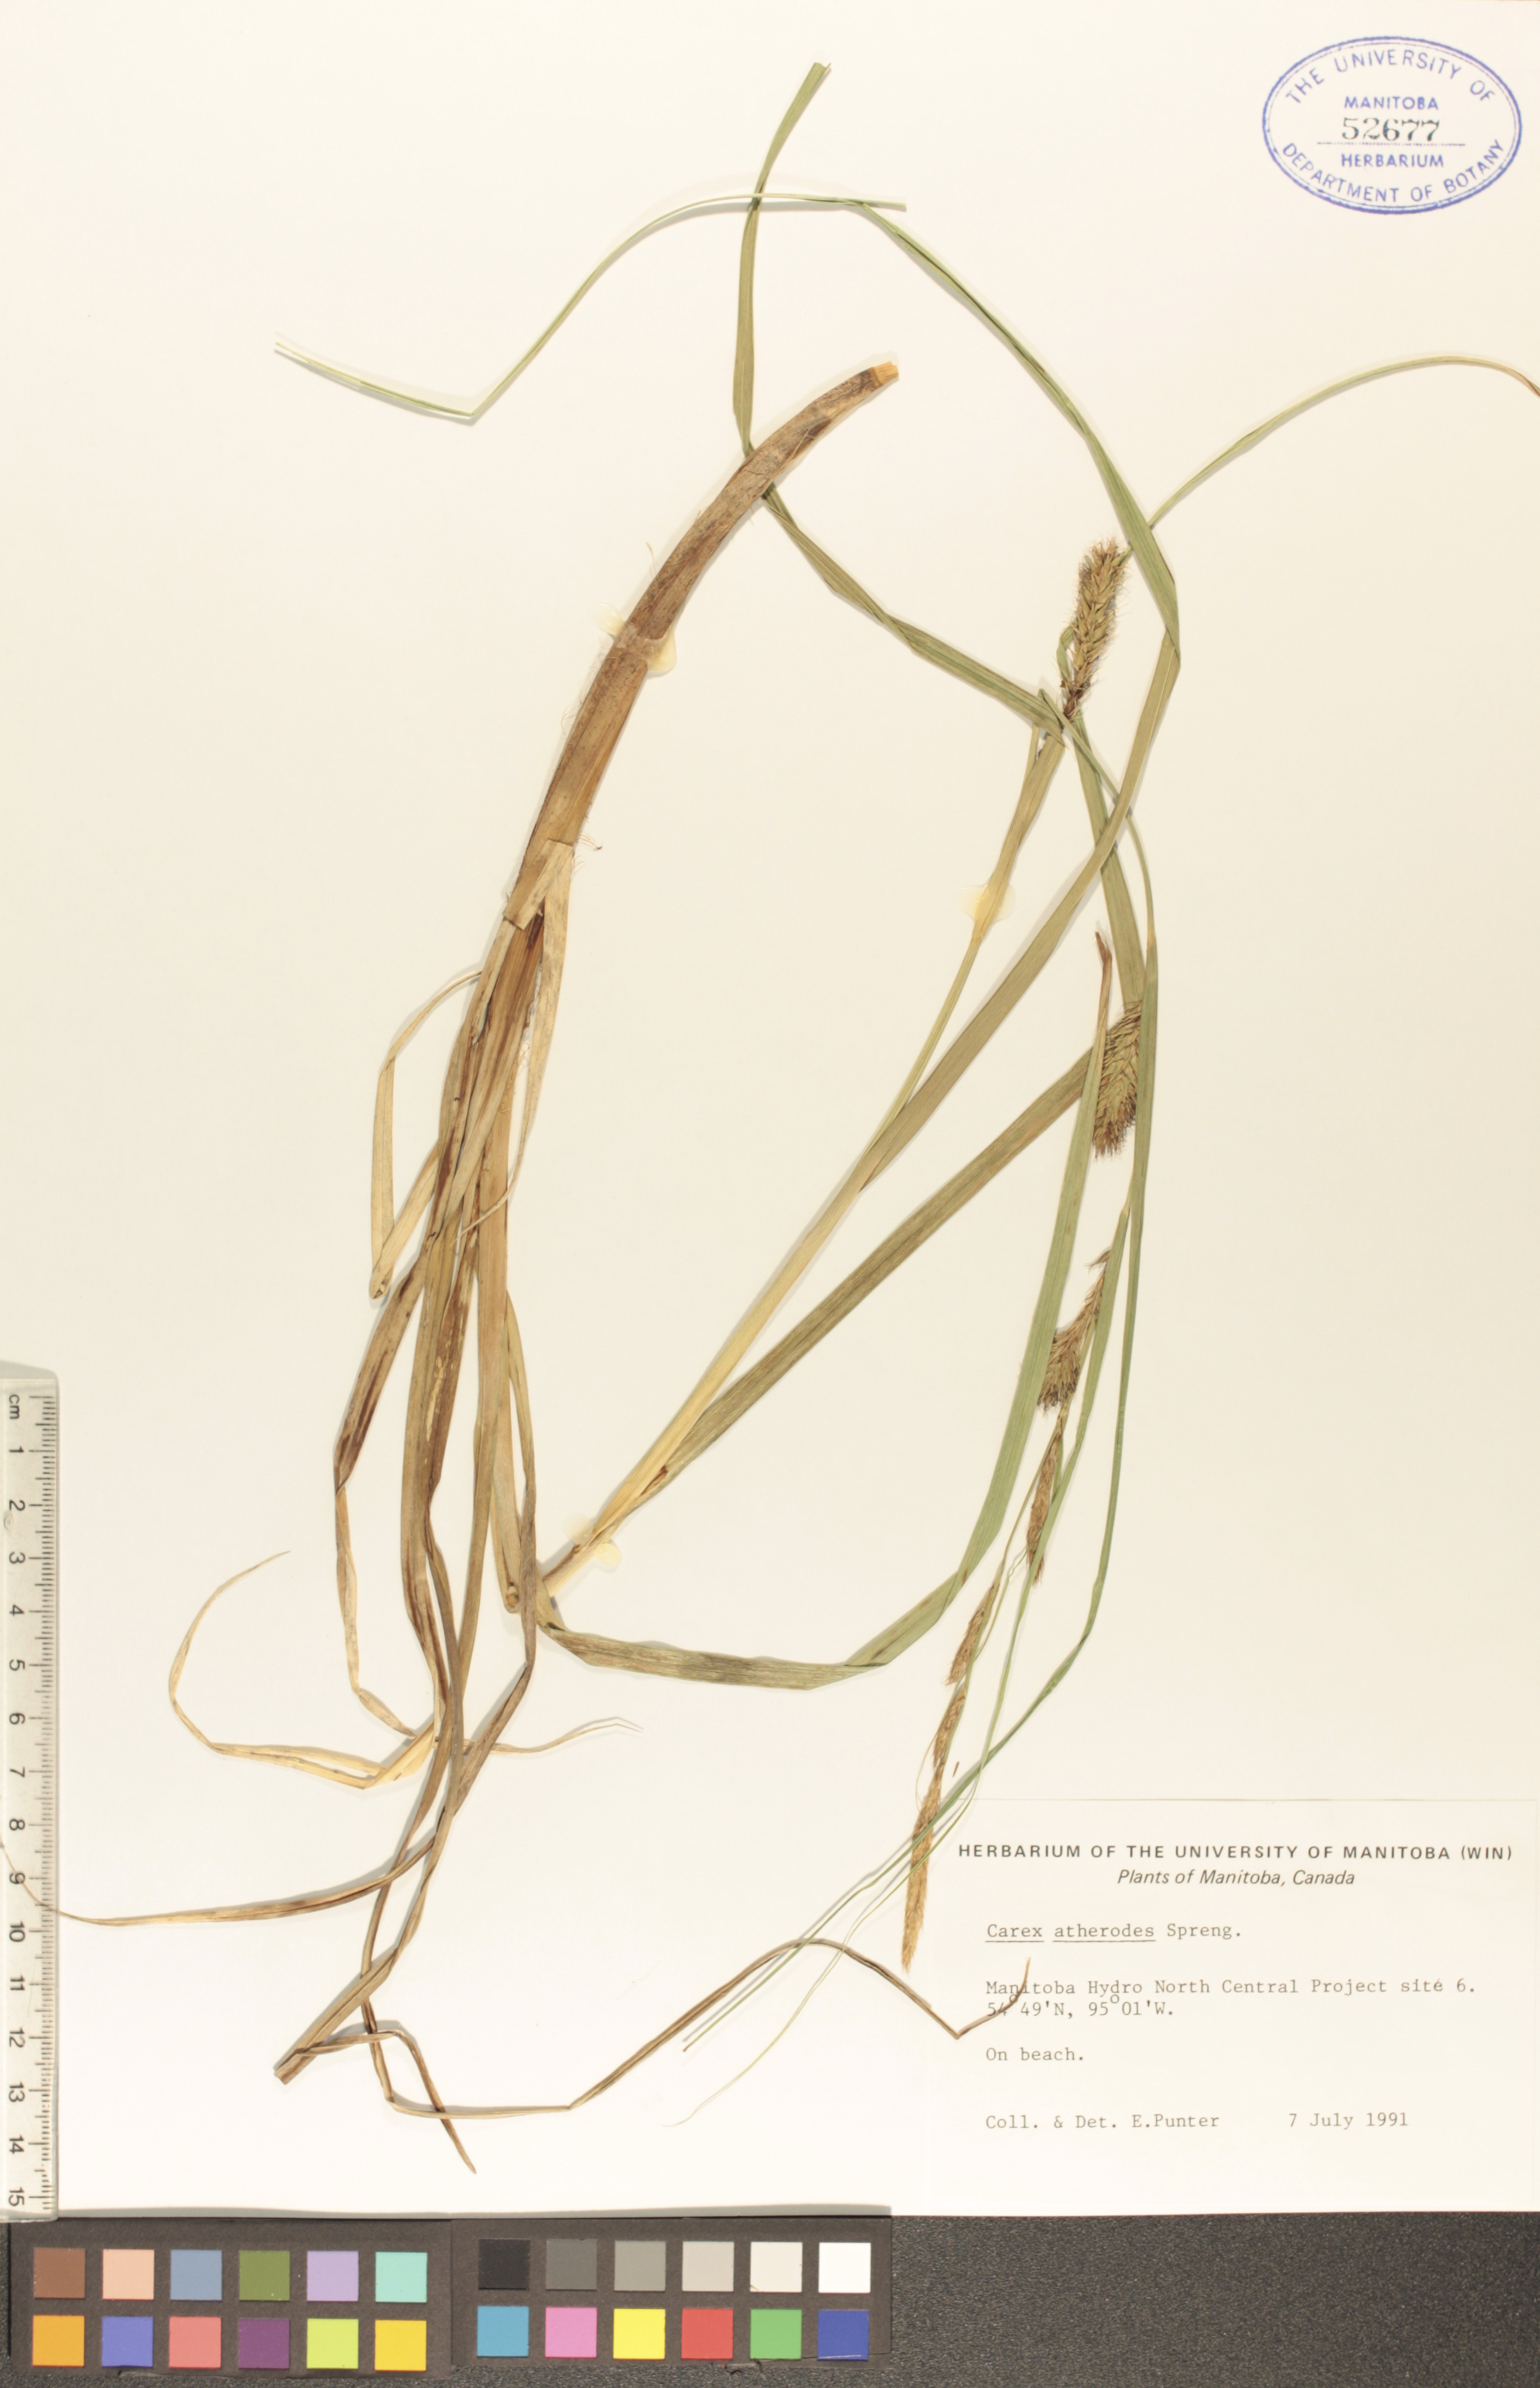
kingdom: Plantae
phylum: Tracheophyta
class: Liliopsida
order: Poales
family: Cyperaceae
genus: Carex
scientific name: Carex atherodes
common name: Wheat sedge
